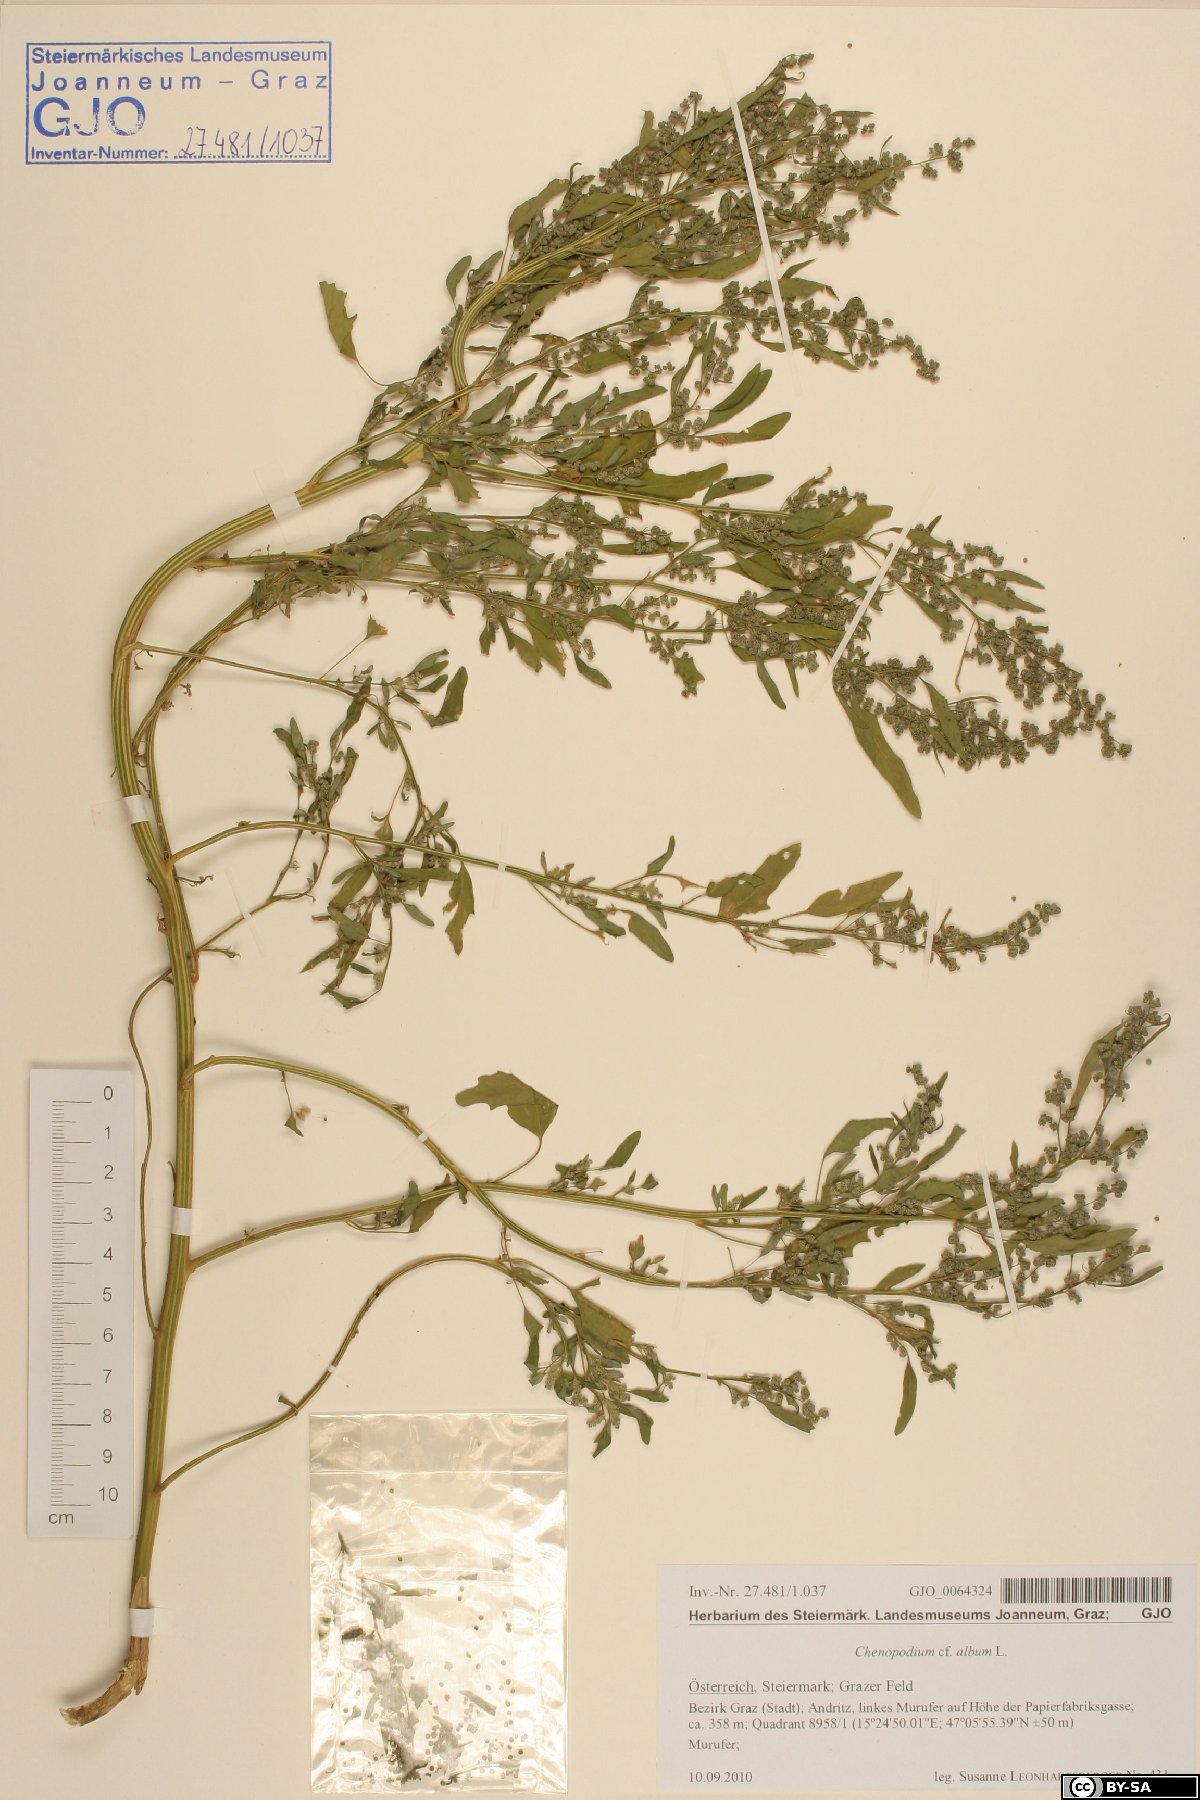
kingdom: Plantae
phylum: Tracheophyta
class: Magnoliopsida
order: Caryophyllales
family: Amaranthaceae
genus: Chenopodium
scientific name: Chenopodium album
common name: Fat-hen
